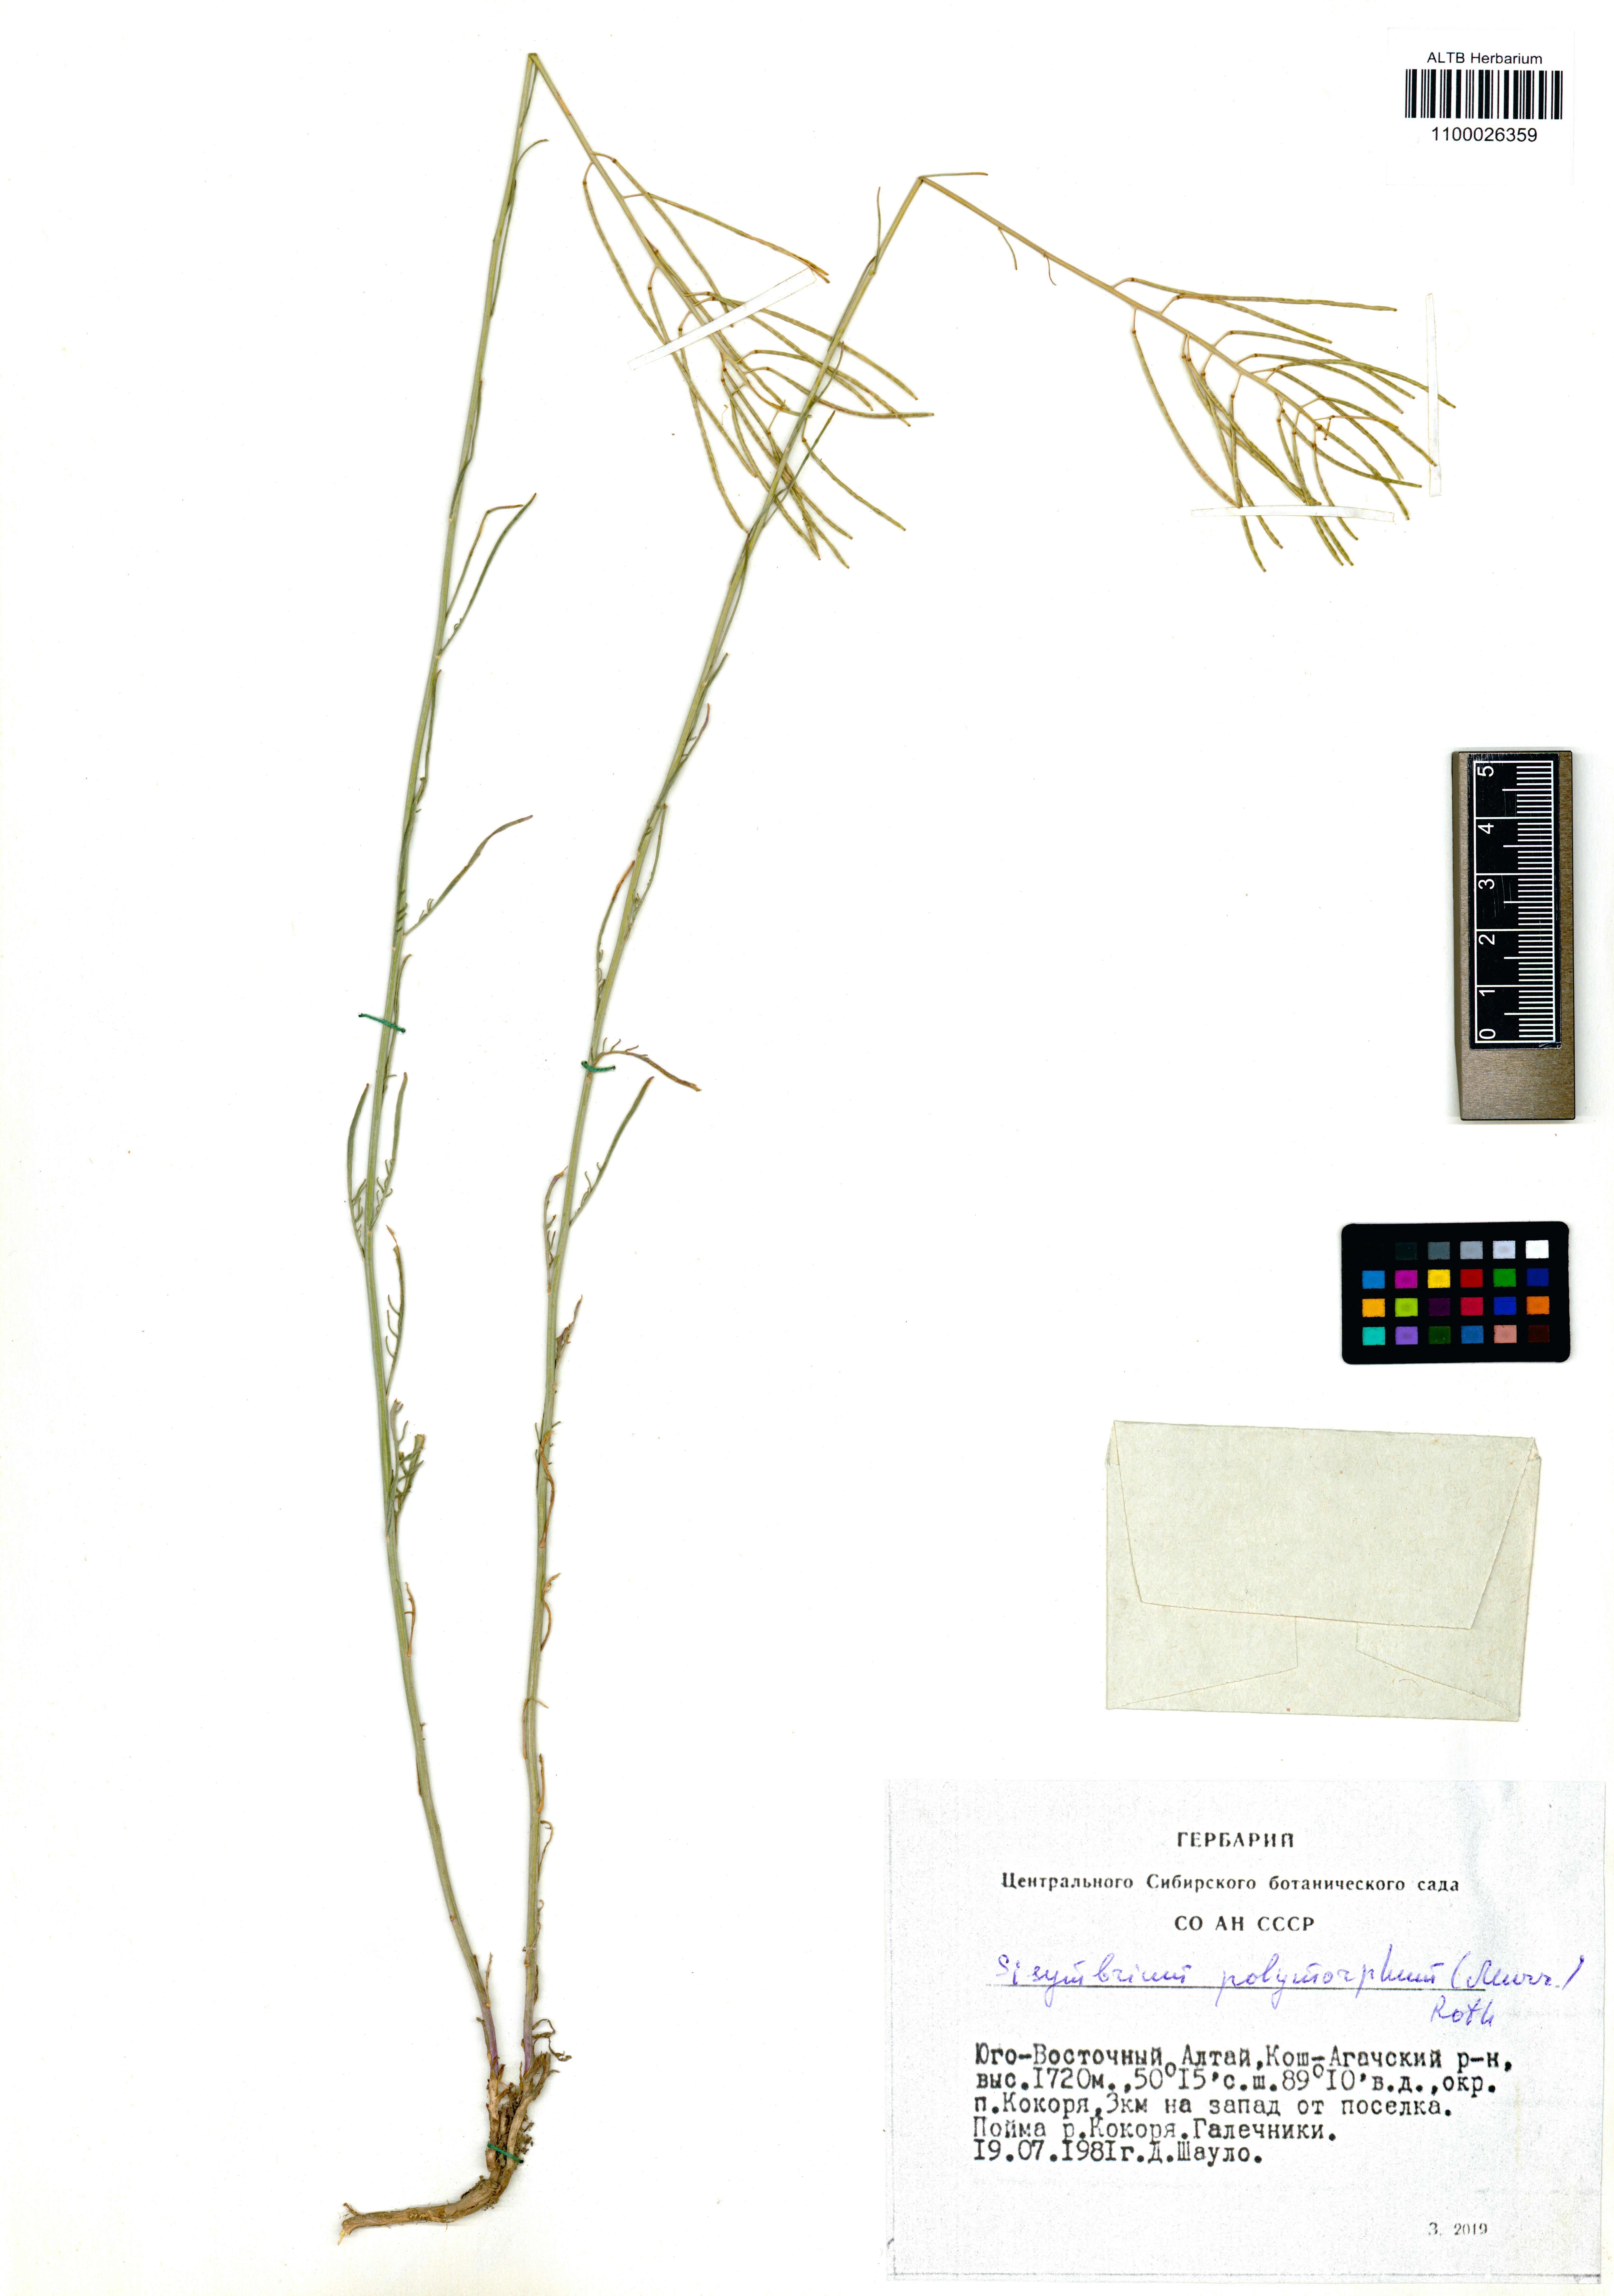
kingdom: Plantae
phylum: Tracheophyta
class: Magnoliopsida
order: Brassicales
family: Brassicaceae
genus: Sisymbrium
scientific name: Sisymbrium polymorphum
